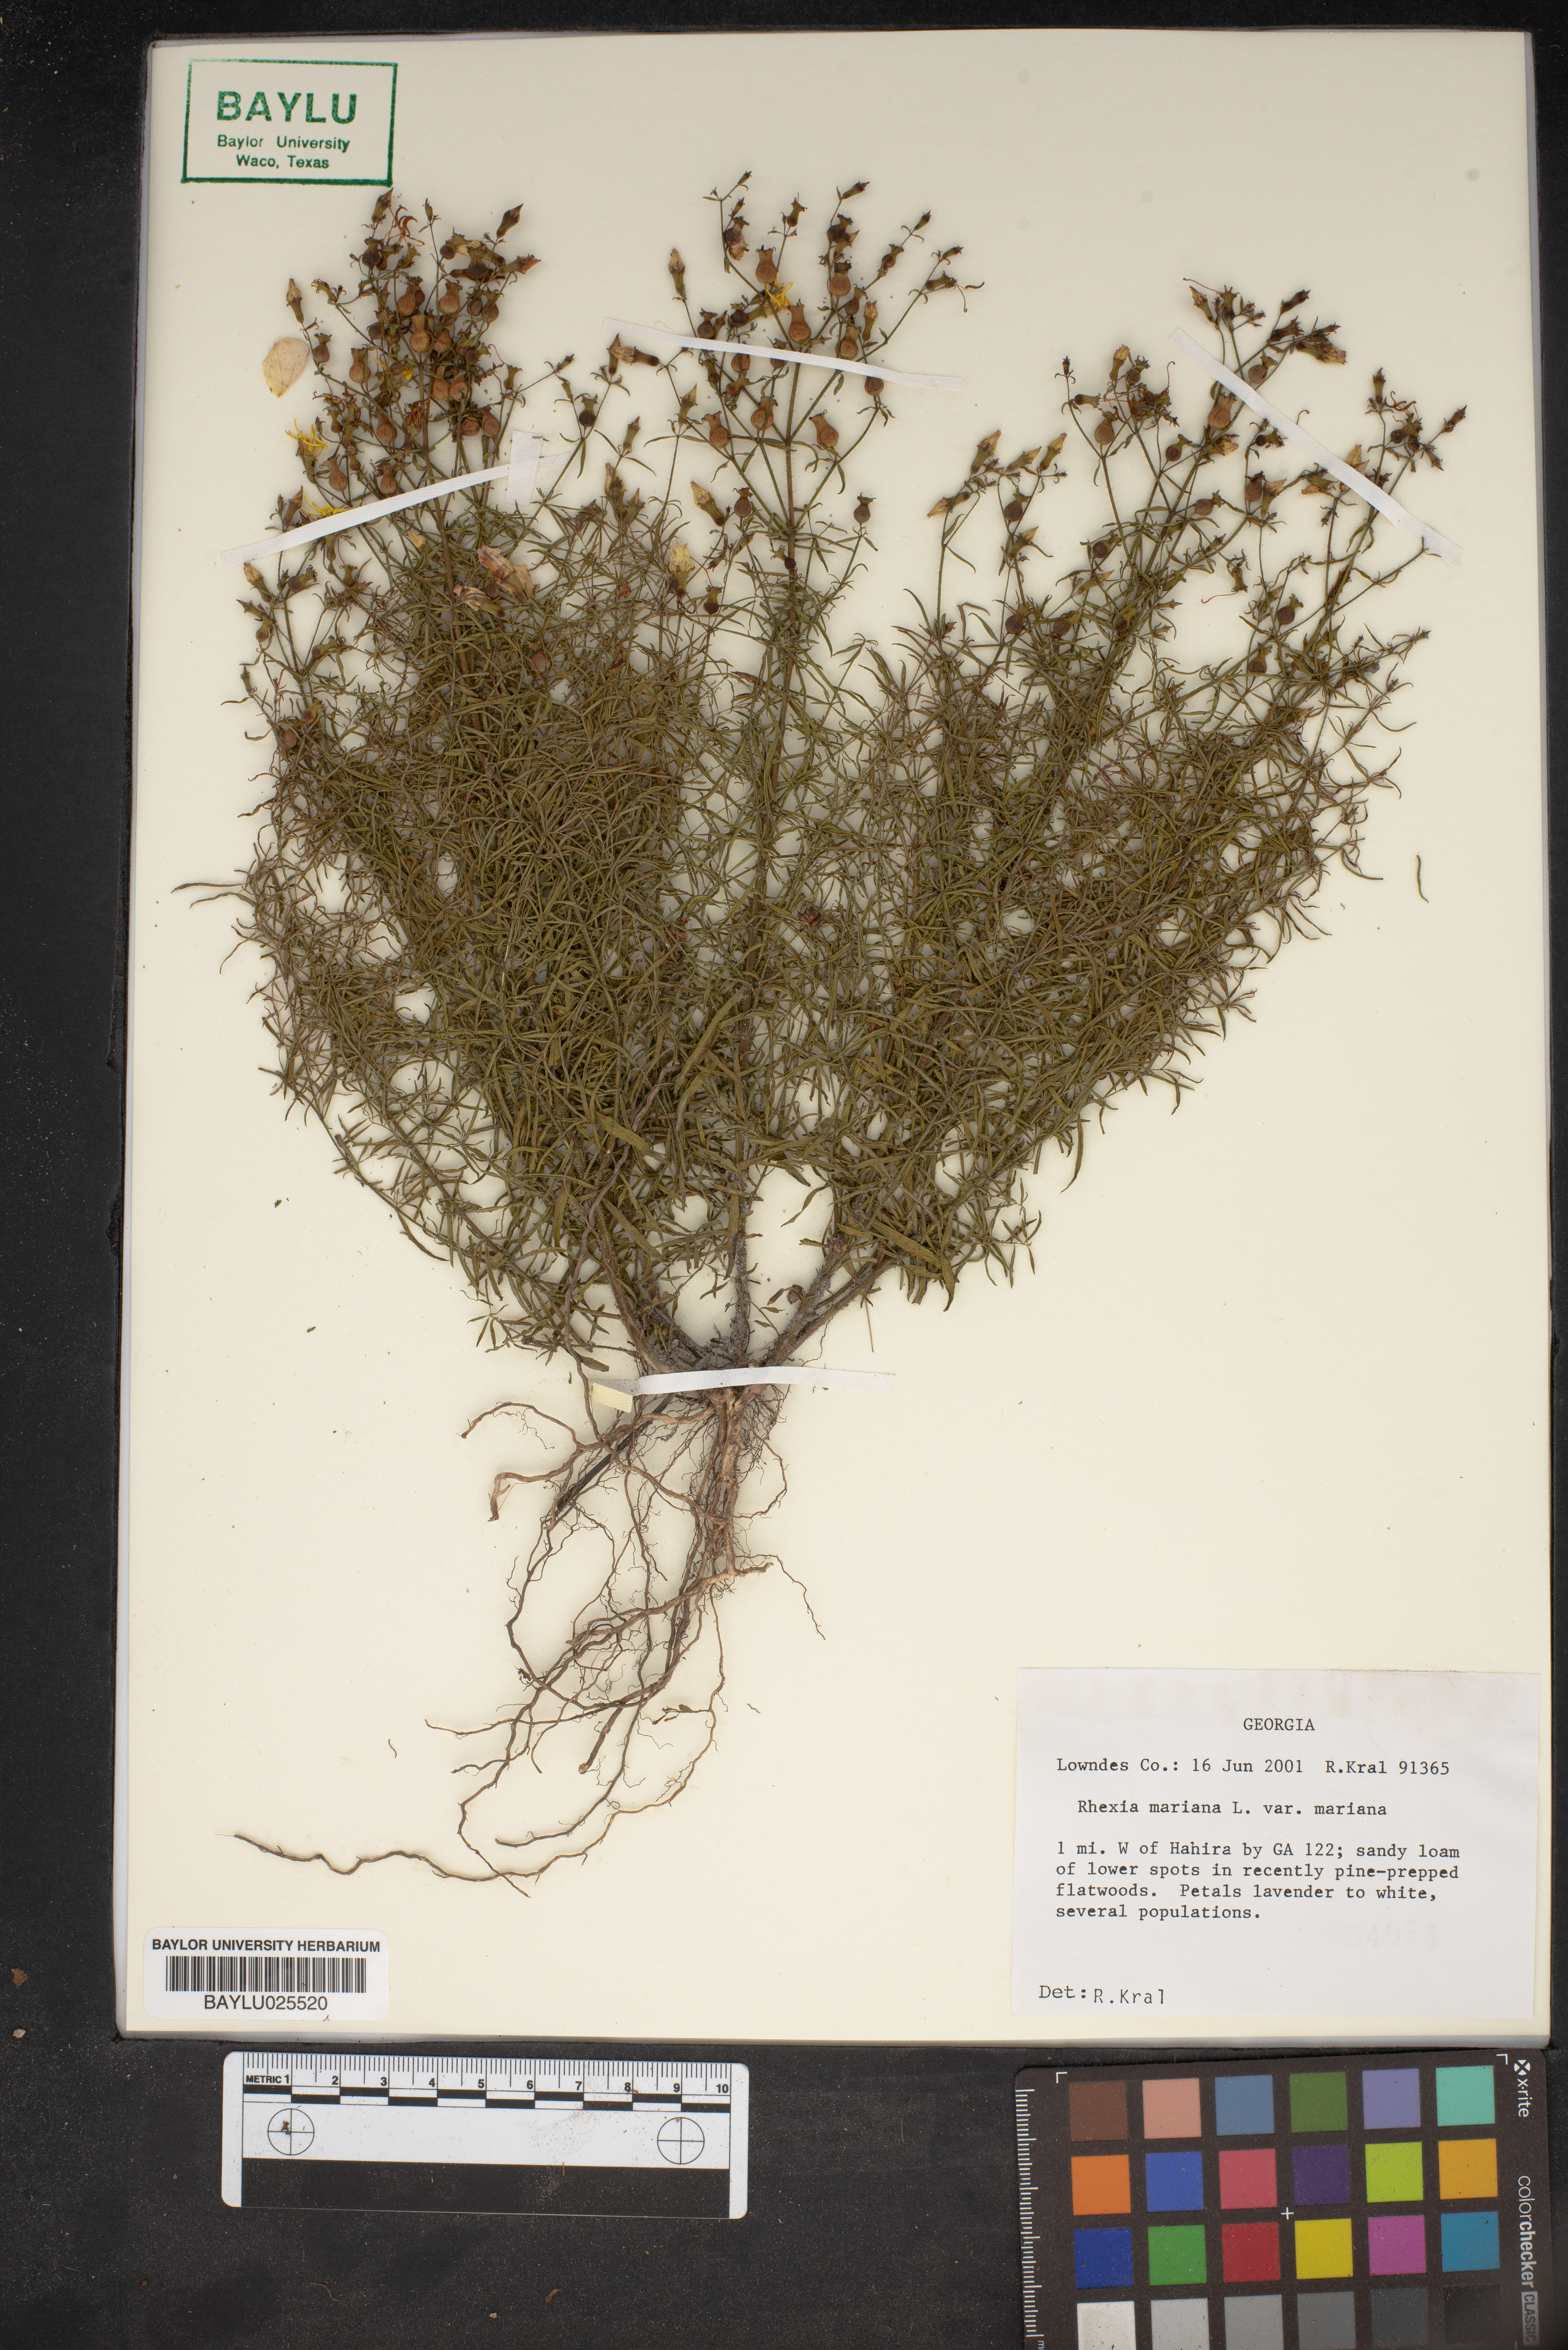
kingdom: Plantae
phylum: Tracheophyta
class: Magnoliopsida
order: Myrtales
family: Melastomataceae
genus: Rhexia
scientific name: Rhexia mariana
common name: Dull meadow-pitcher
